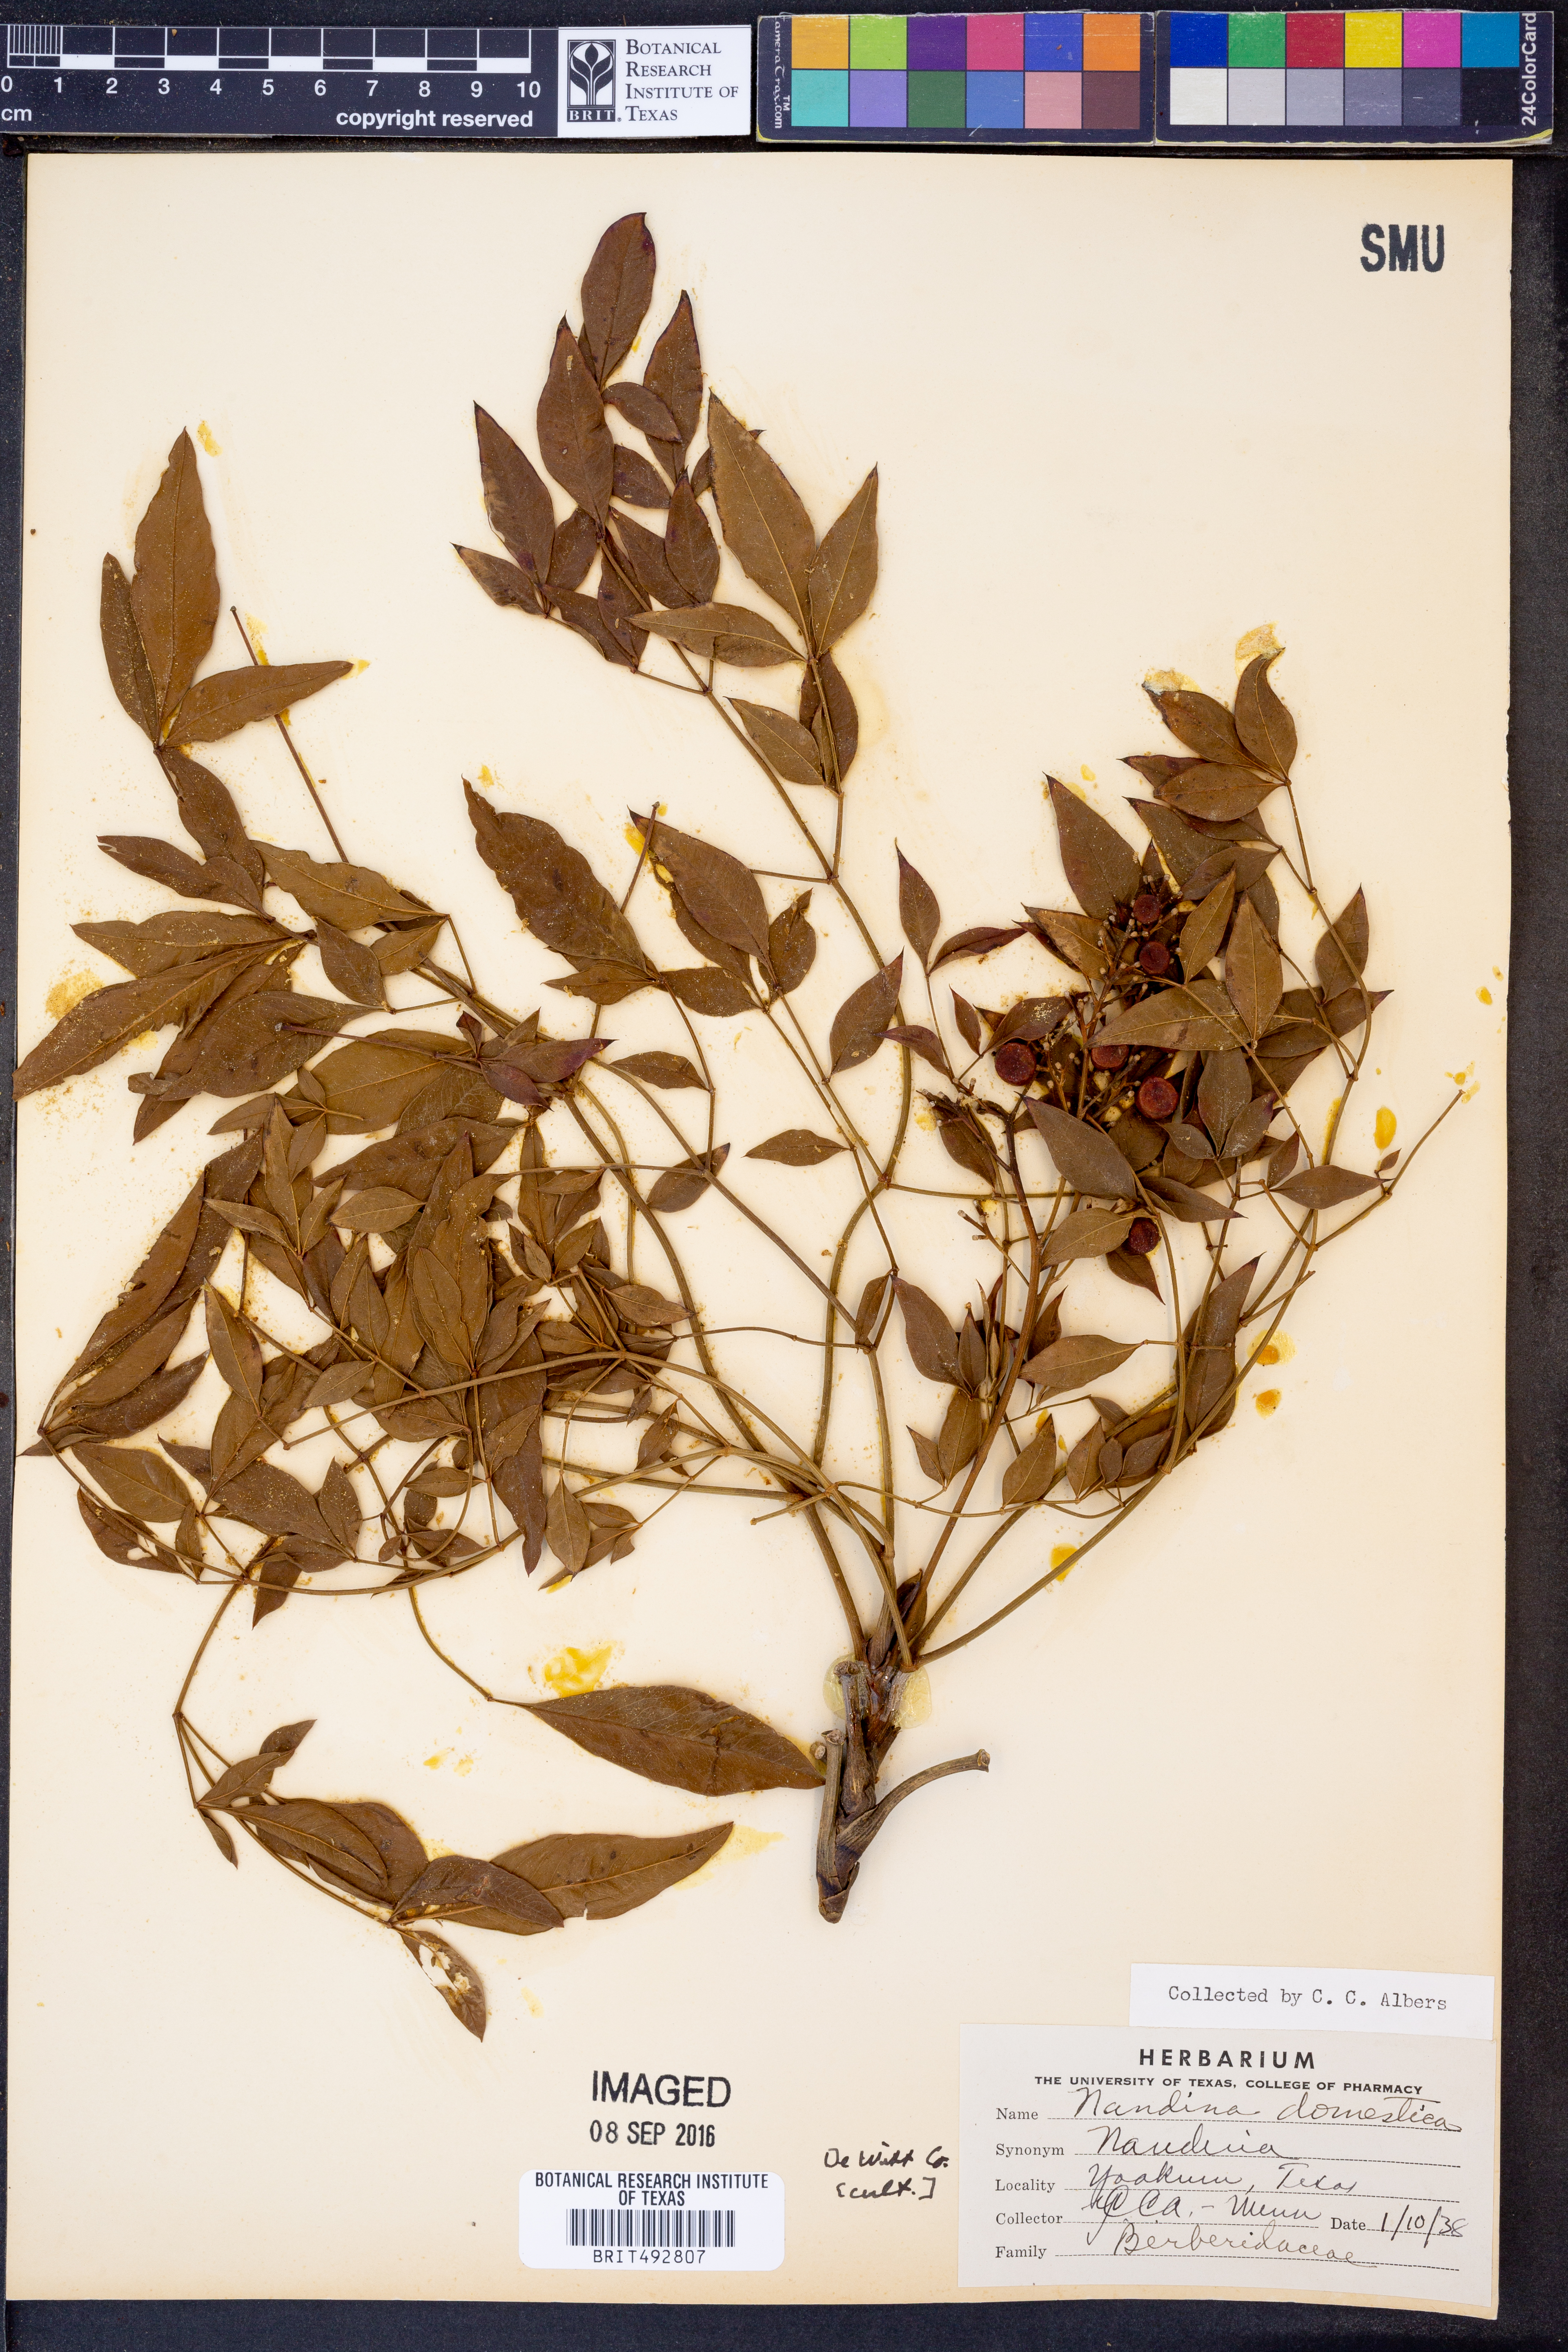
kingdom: Plantae
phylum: Tracheophyta
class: Magnoliopsida
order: Ranunculales
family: Berberidaceae
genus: Nandina
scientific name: Nandina domestica
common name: Sacred bamboo
